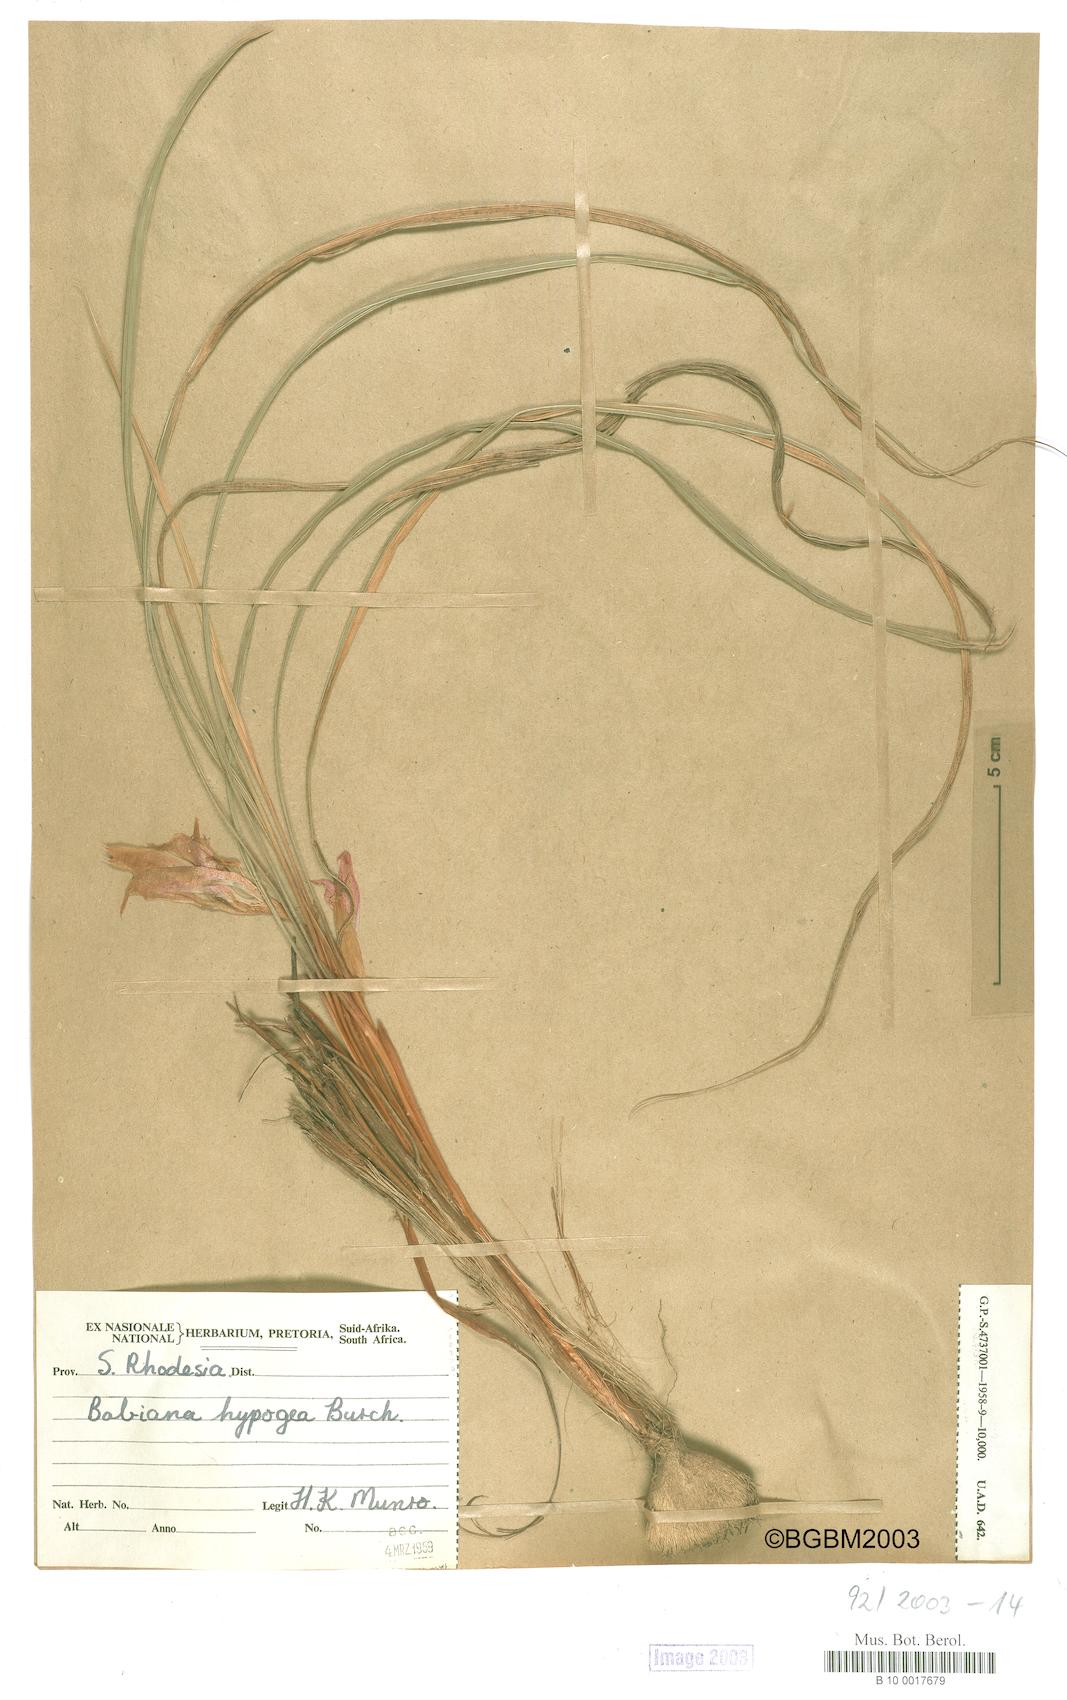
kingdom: Plantae
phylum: Tracheophyta
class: Liliopsida
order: Asparagales
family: Iridaceae
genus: Babiana
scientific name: Babiana hypogaea
